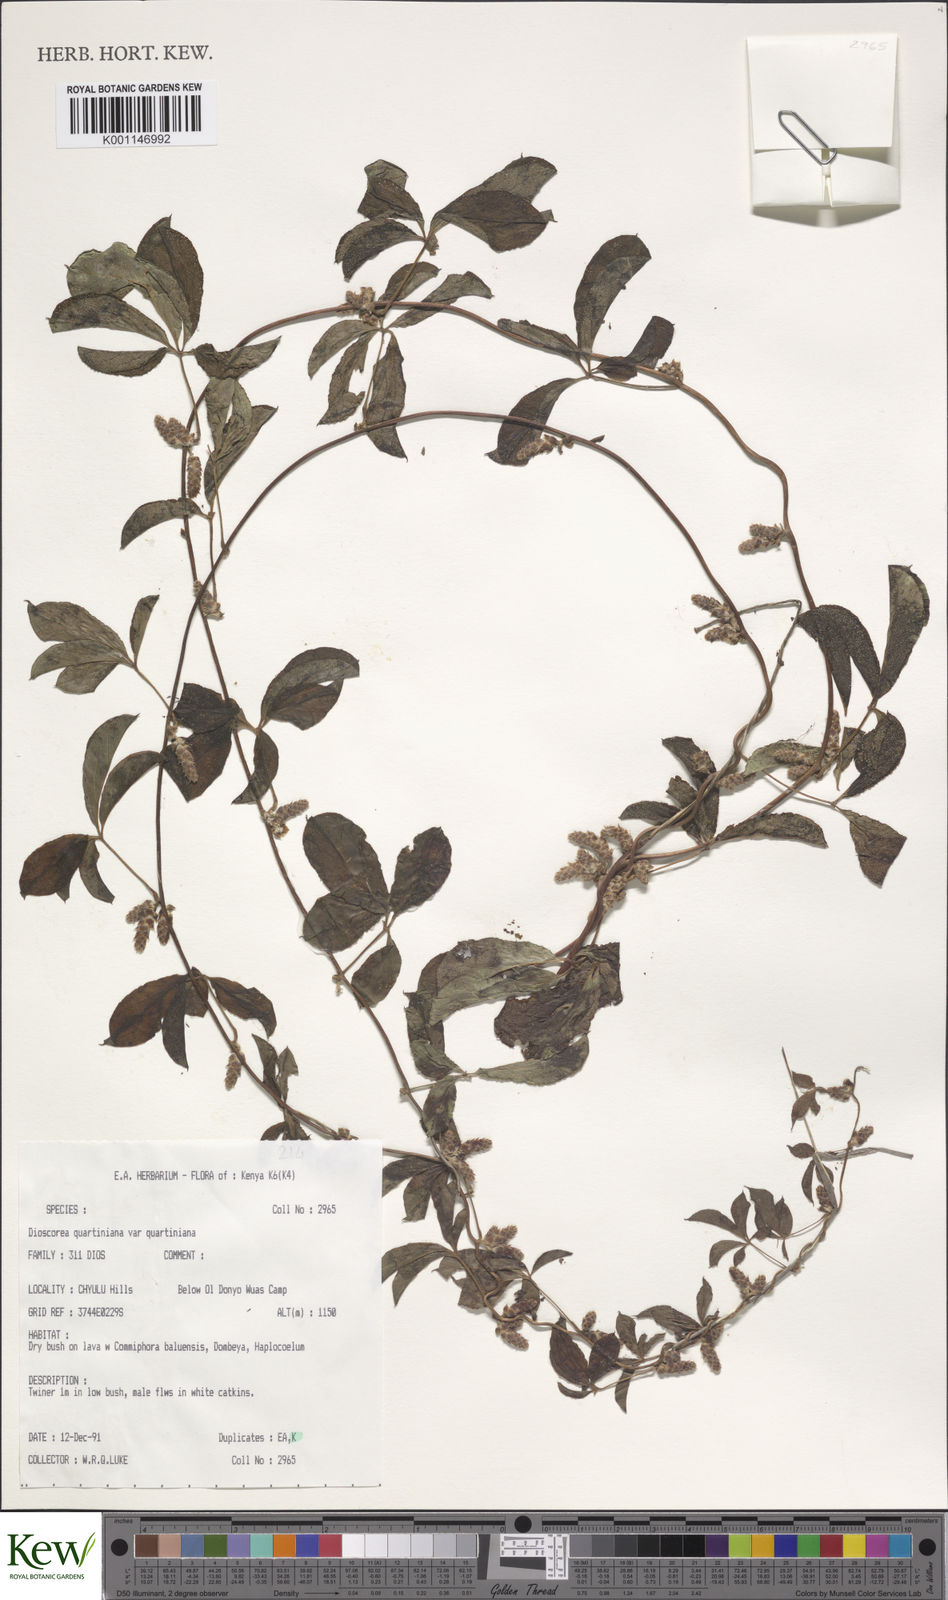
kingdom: Plantae
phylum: Tracheophyta
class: Liliopsida
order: Dioscoreales
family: Dioscoreaceae
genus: Dioscorea
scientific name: Dioscorea quartiniana
